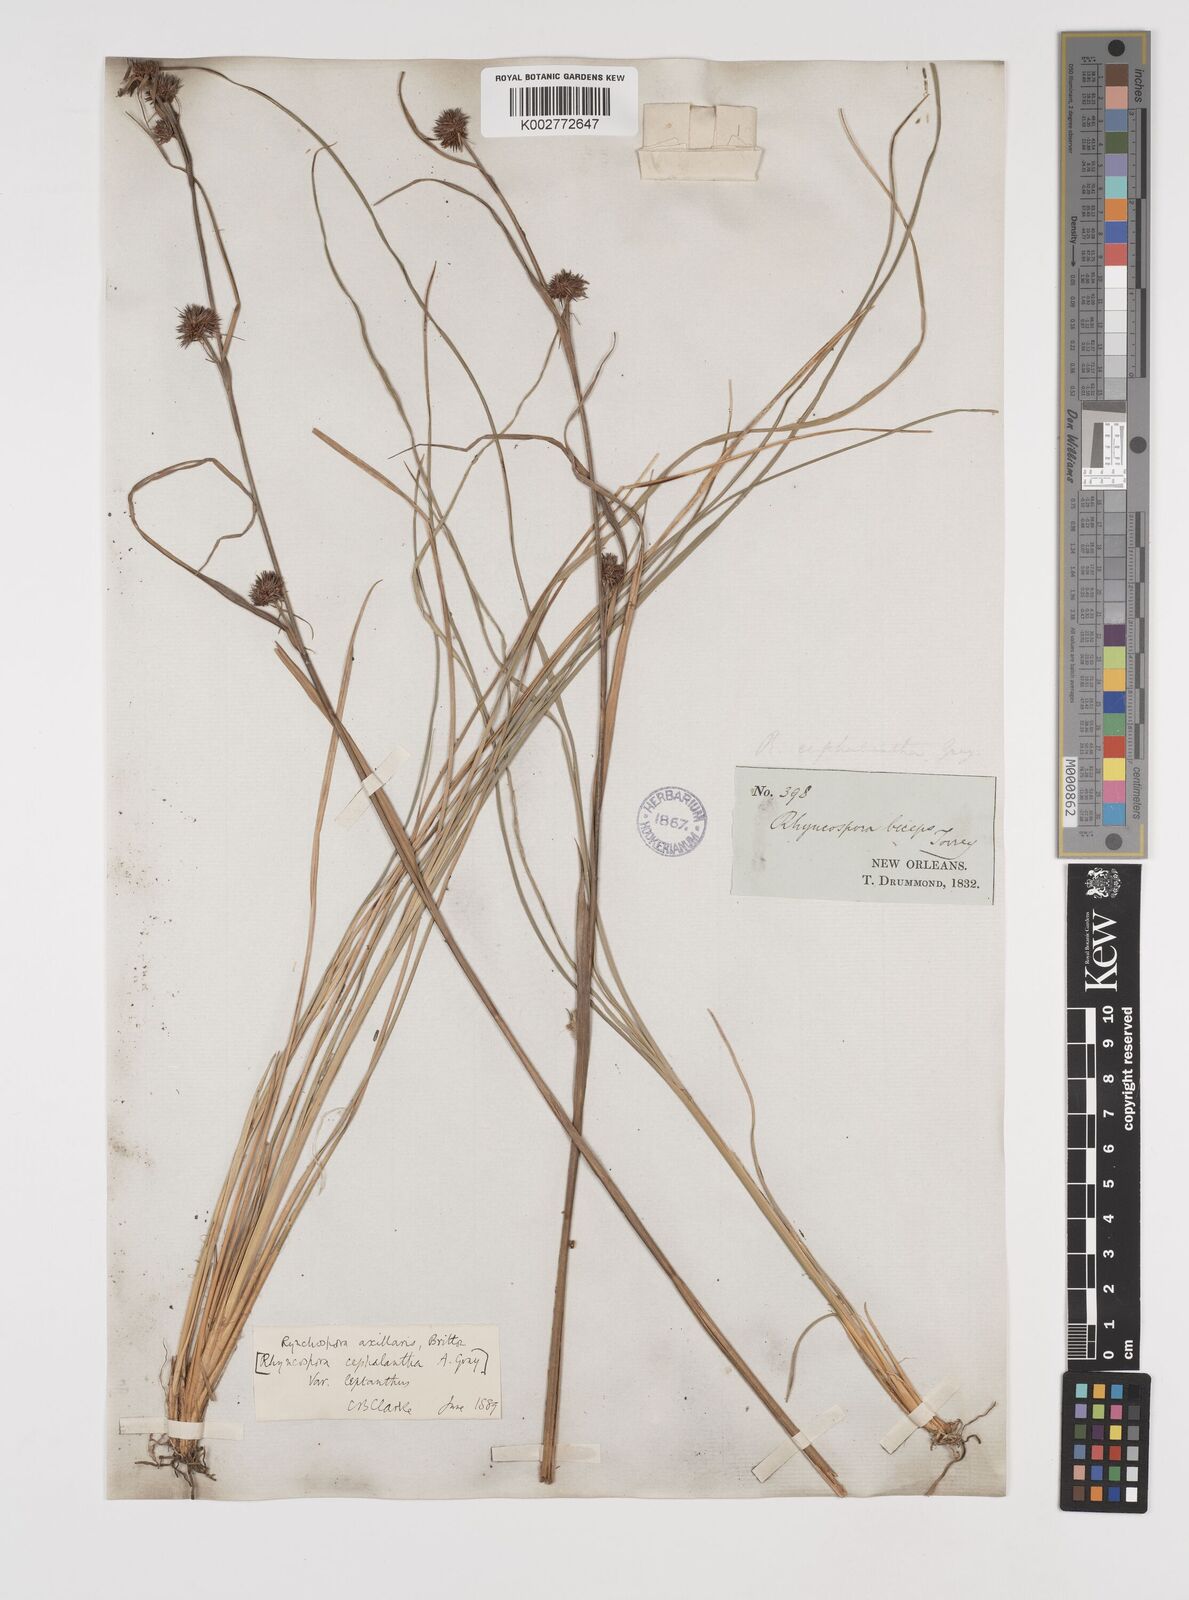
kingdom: Plantae
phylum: Tracheophyta
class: Liliopsida
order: Poales
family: Cyperaceae
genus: Rhynchospora
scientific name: Rhynchospora glomerata
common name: Cluster beak sedge
